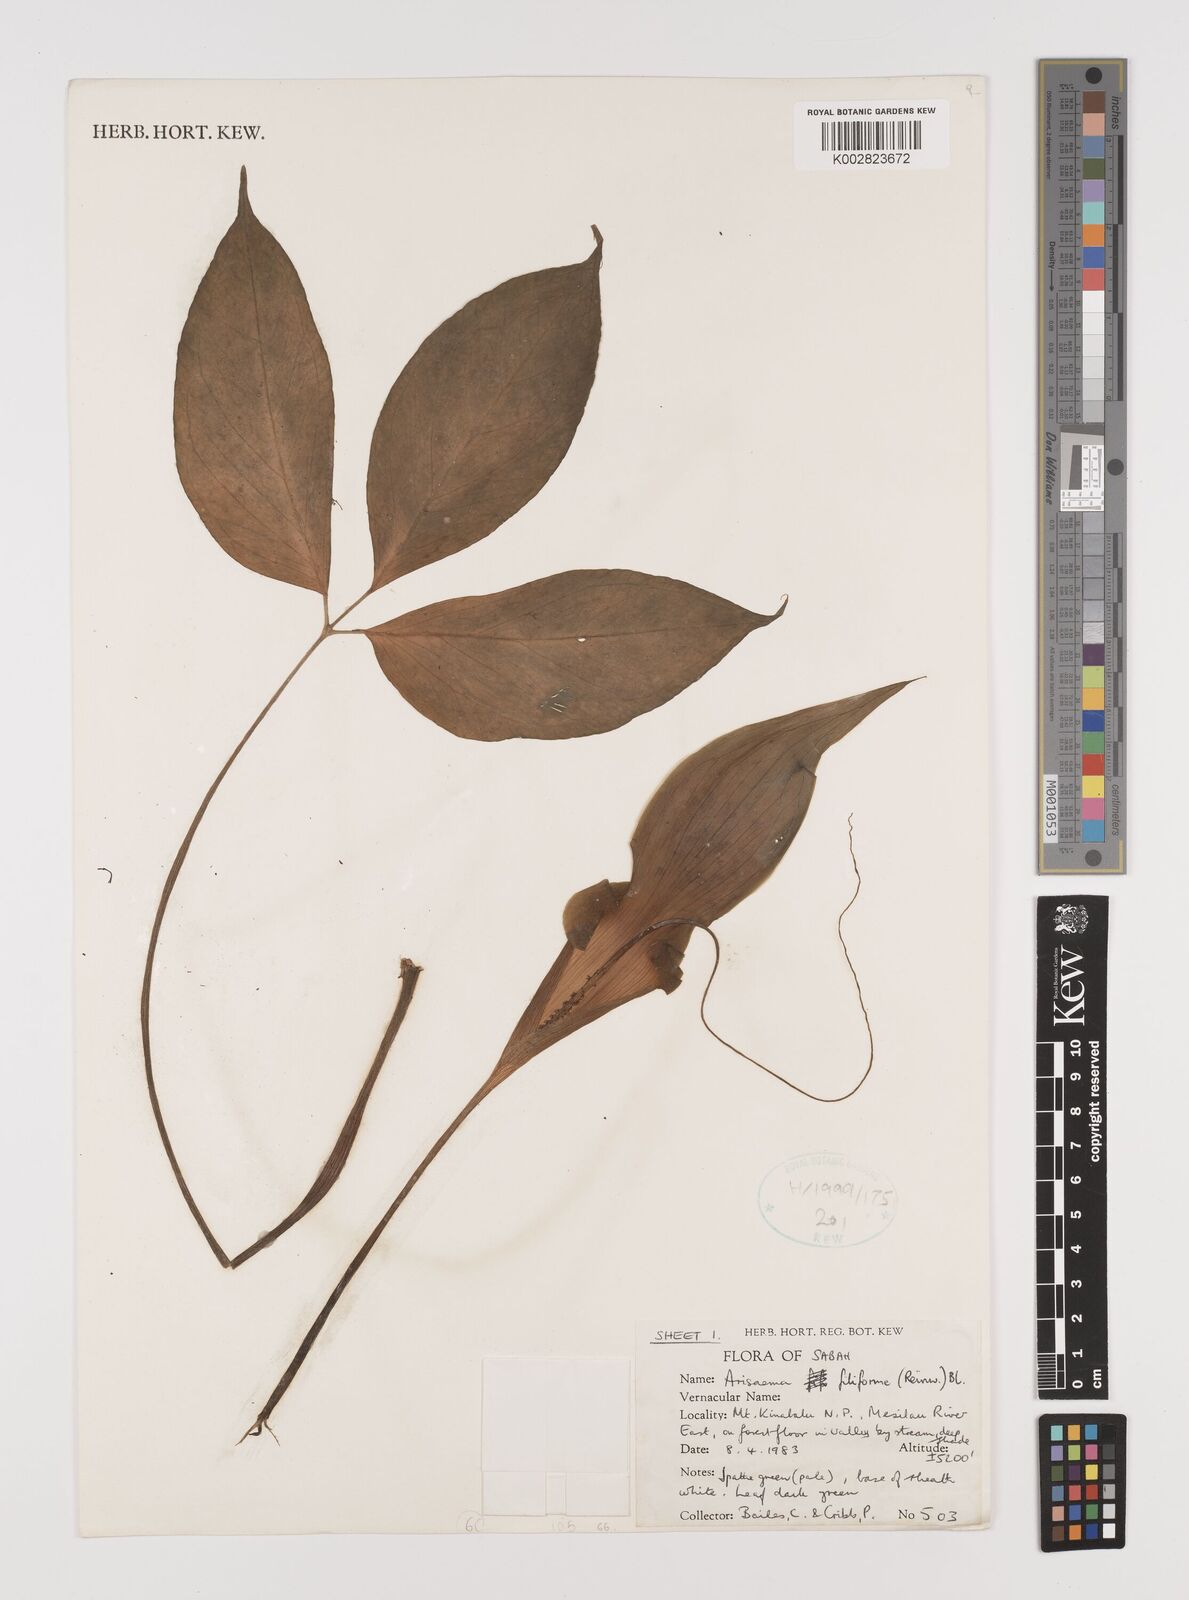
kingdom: Plantae
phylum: Tracheophyta
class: Liliopsida
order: Alismatales
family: Araceae
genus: Arisaema
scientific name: Arisaema filiforme
